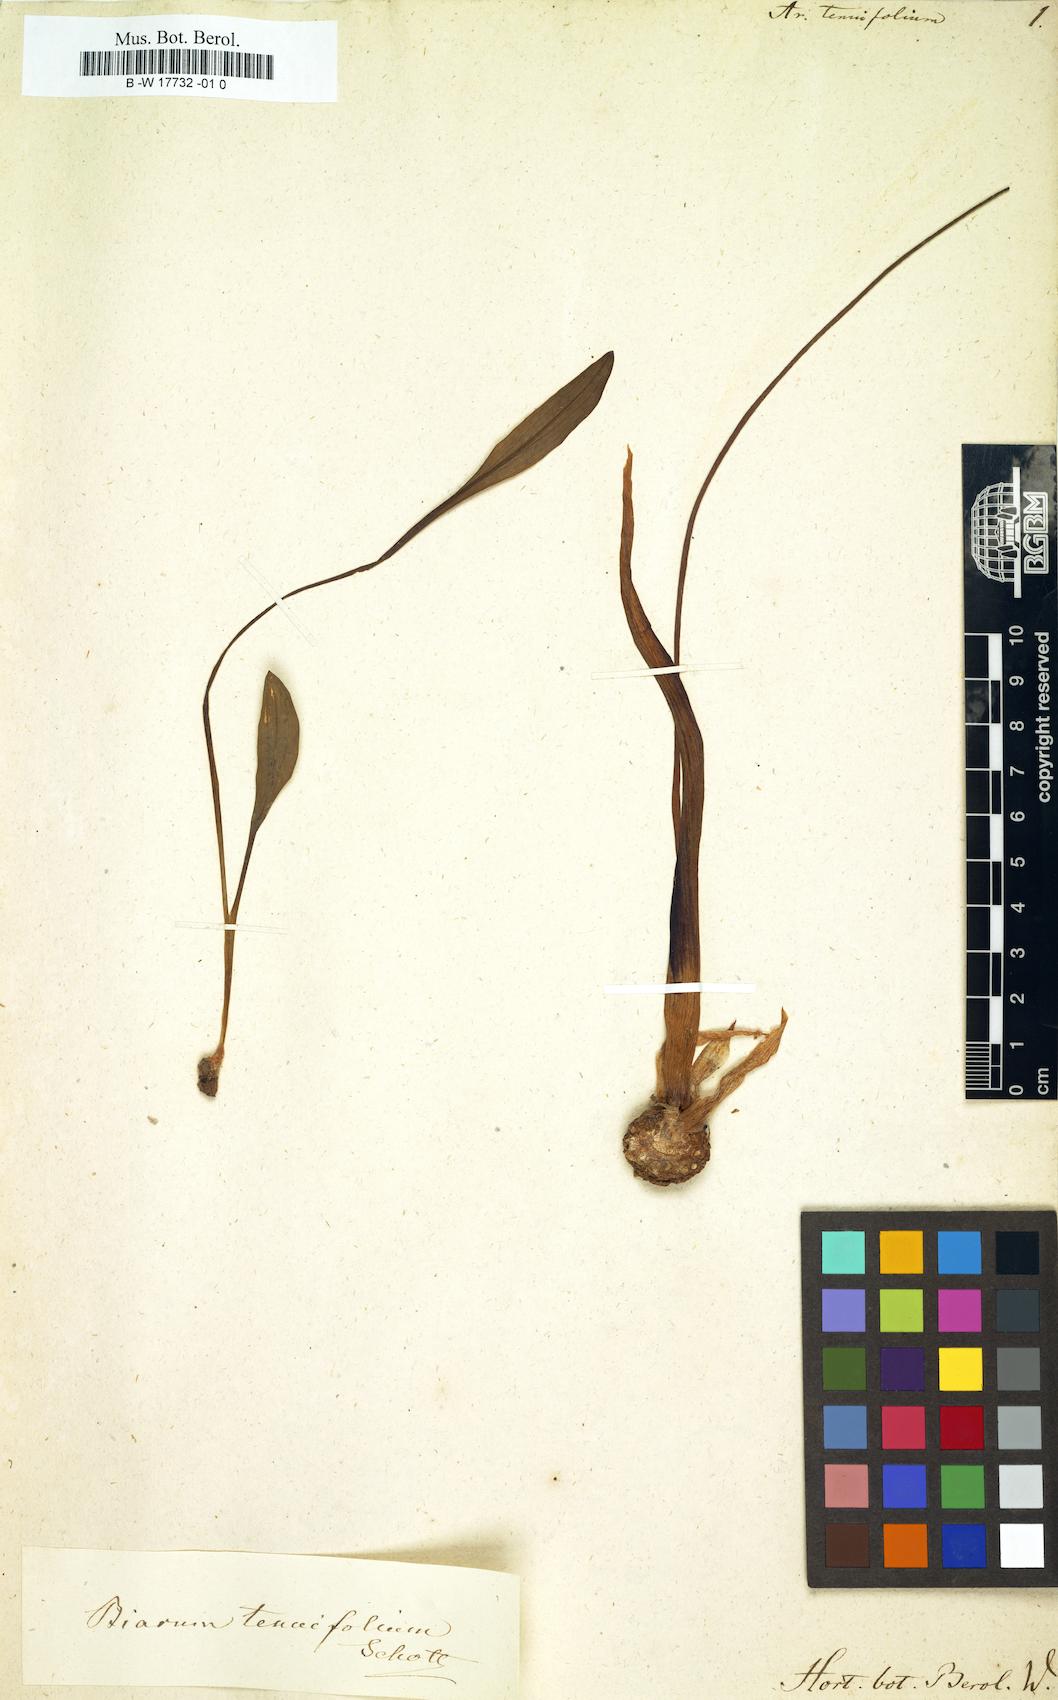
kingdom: Plantae
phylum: Tracheophyta
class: Liliopsida
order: Alismatales
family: Araceae
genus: Biarum
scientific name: Biarum tenuifolium
